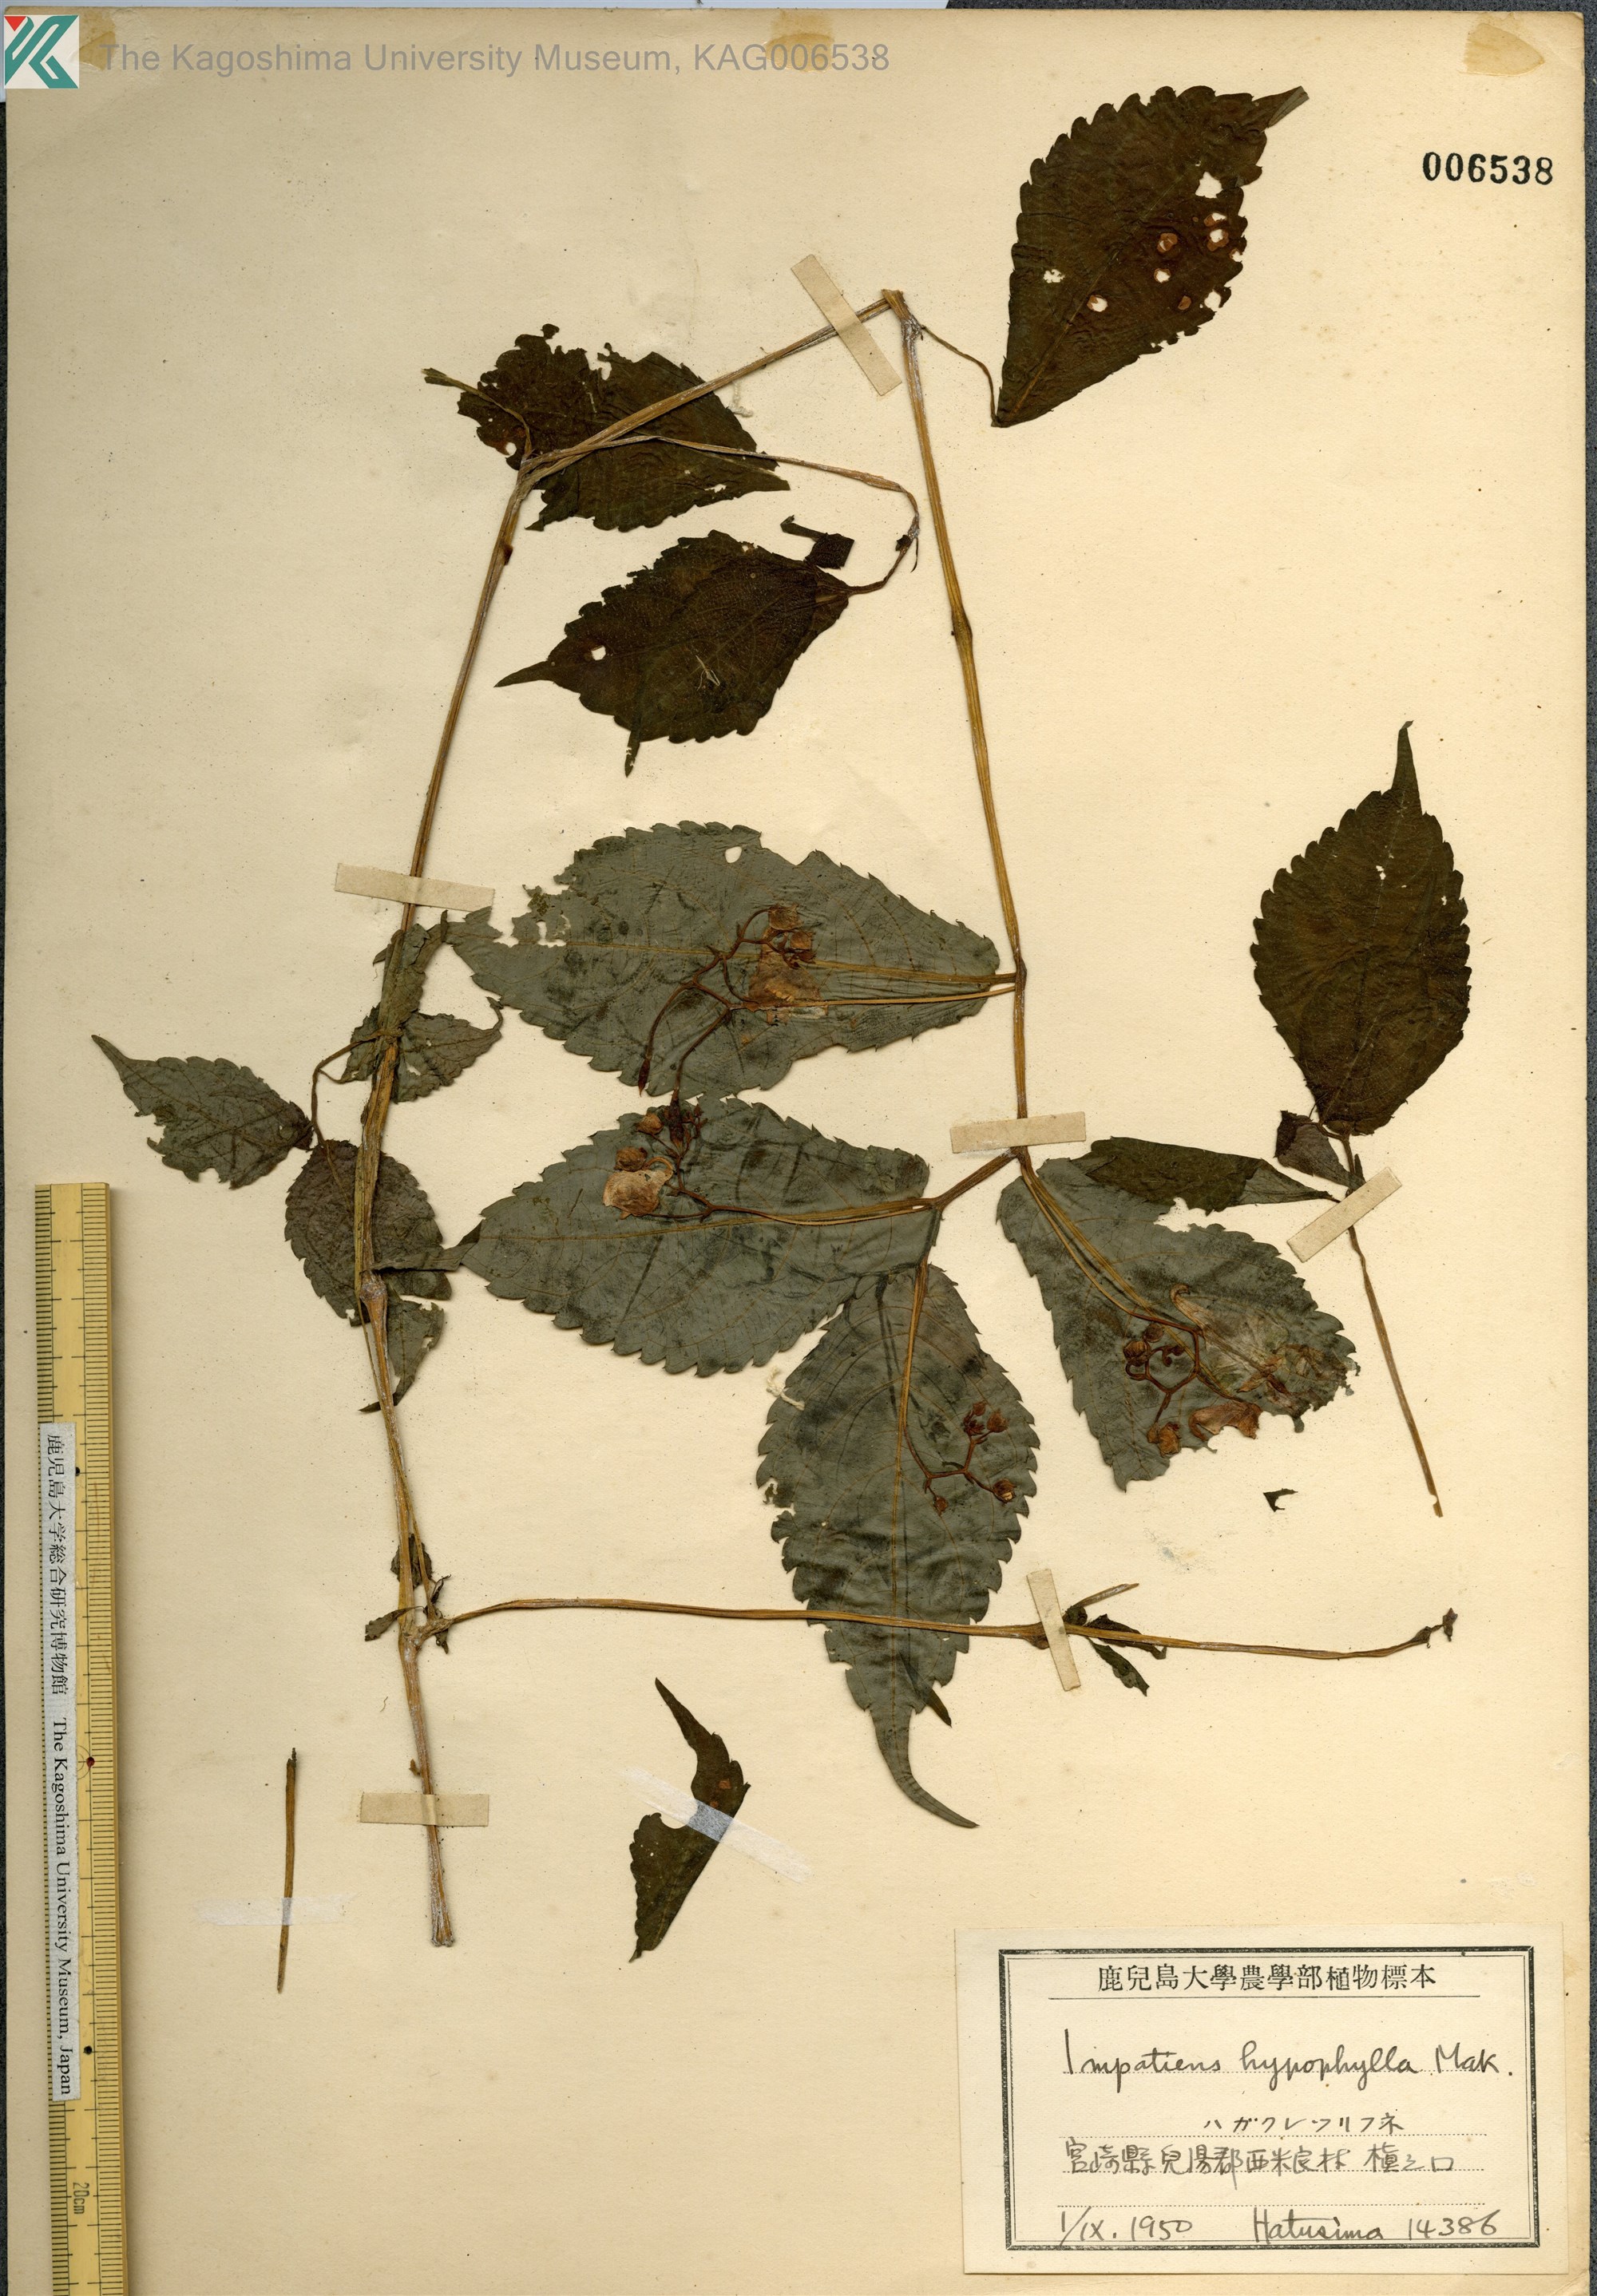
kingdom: Plantae
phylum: Tracheophyta
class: Magnoliopsida
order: Ericales
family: Balsaminaceae
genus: Impatiens
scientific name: Impatiens hypophylla
